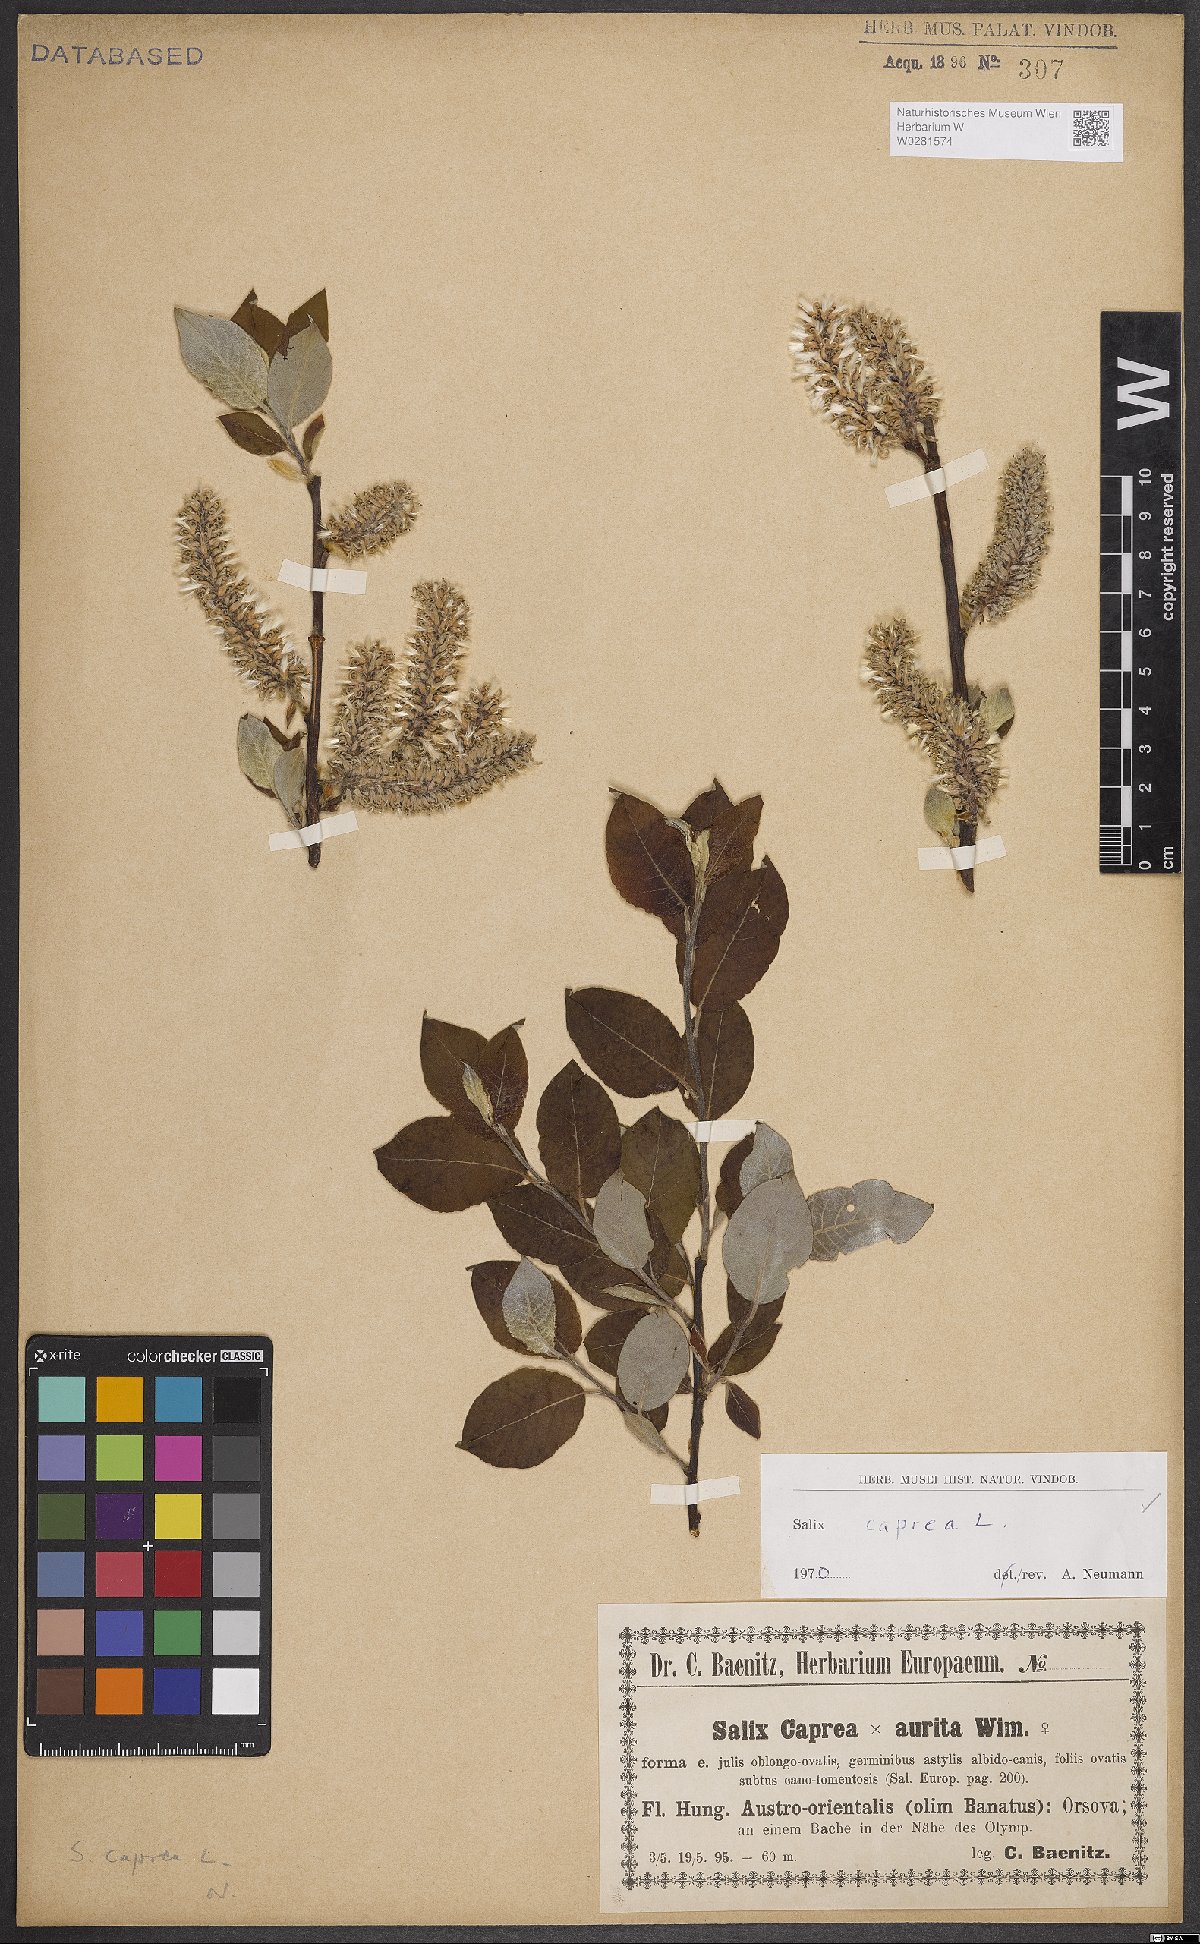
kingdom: Plantae
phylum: Tracheophyta
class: Magnoliopsida
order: Malpighiales
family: Salicaceae
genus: Salix
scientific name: Salix caprea
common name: Goat willow
